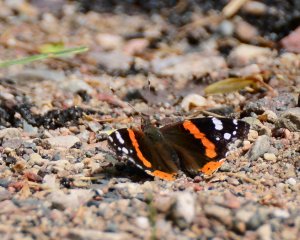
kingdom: Animalia
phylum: Arthropoda
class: Insecta
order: Lepidoptera
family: Nymphalidae
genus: Vanessa
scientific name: Vanessa atalanta
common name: Red Admiral
